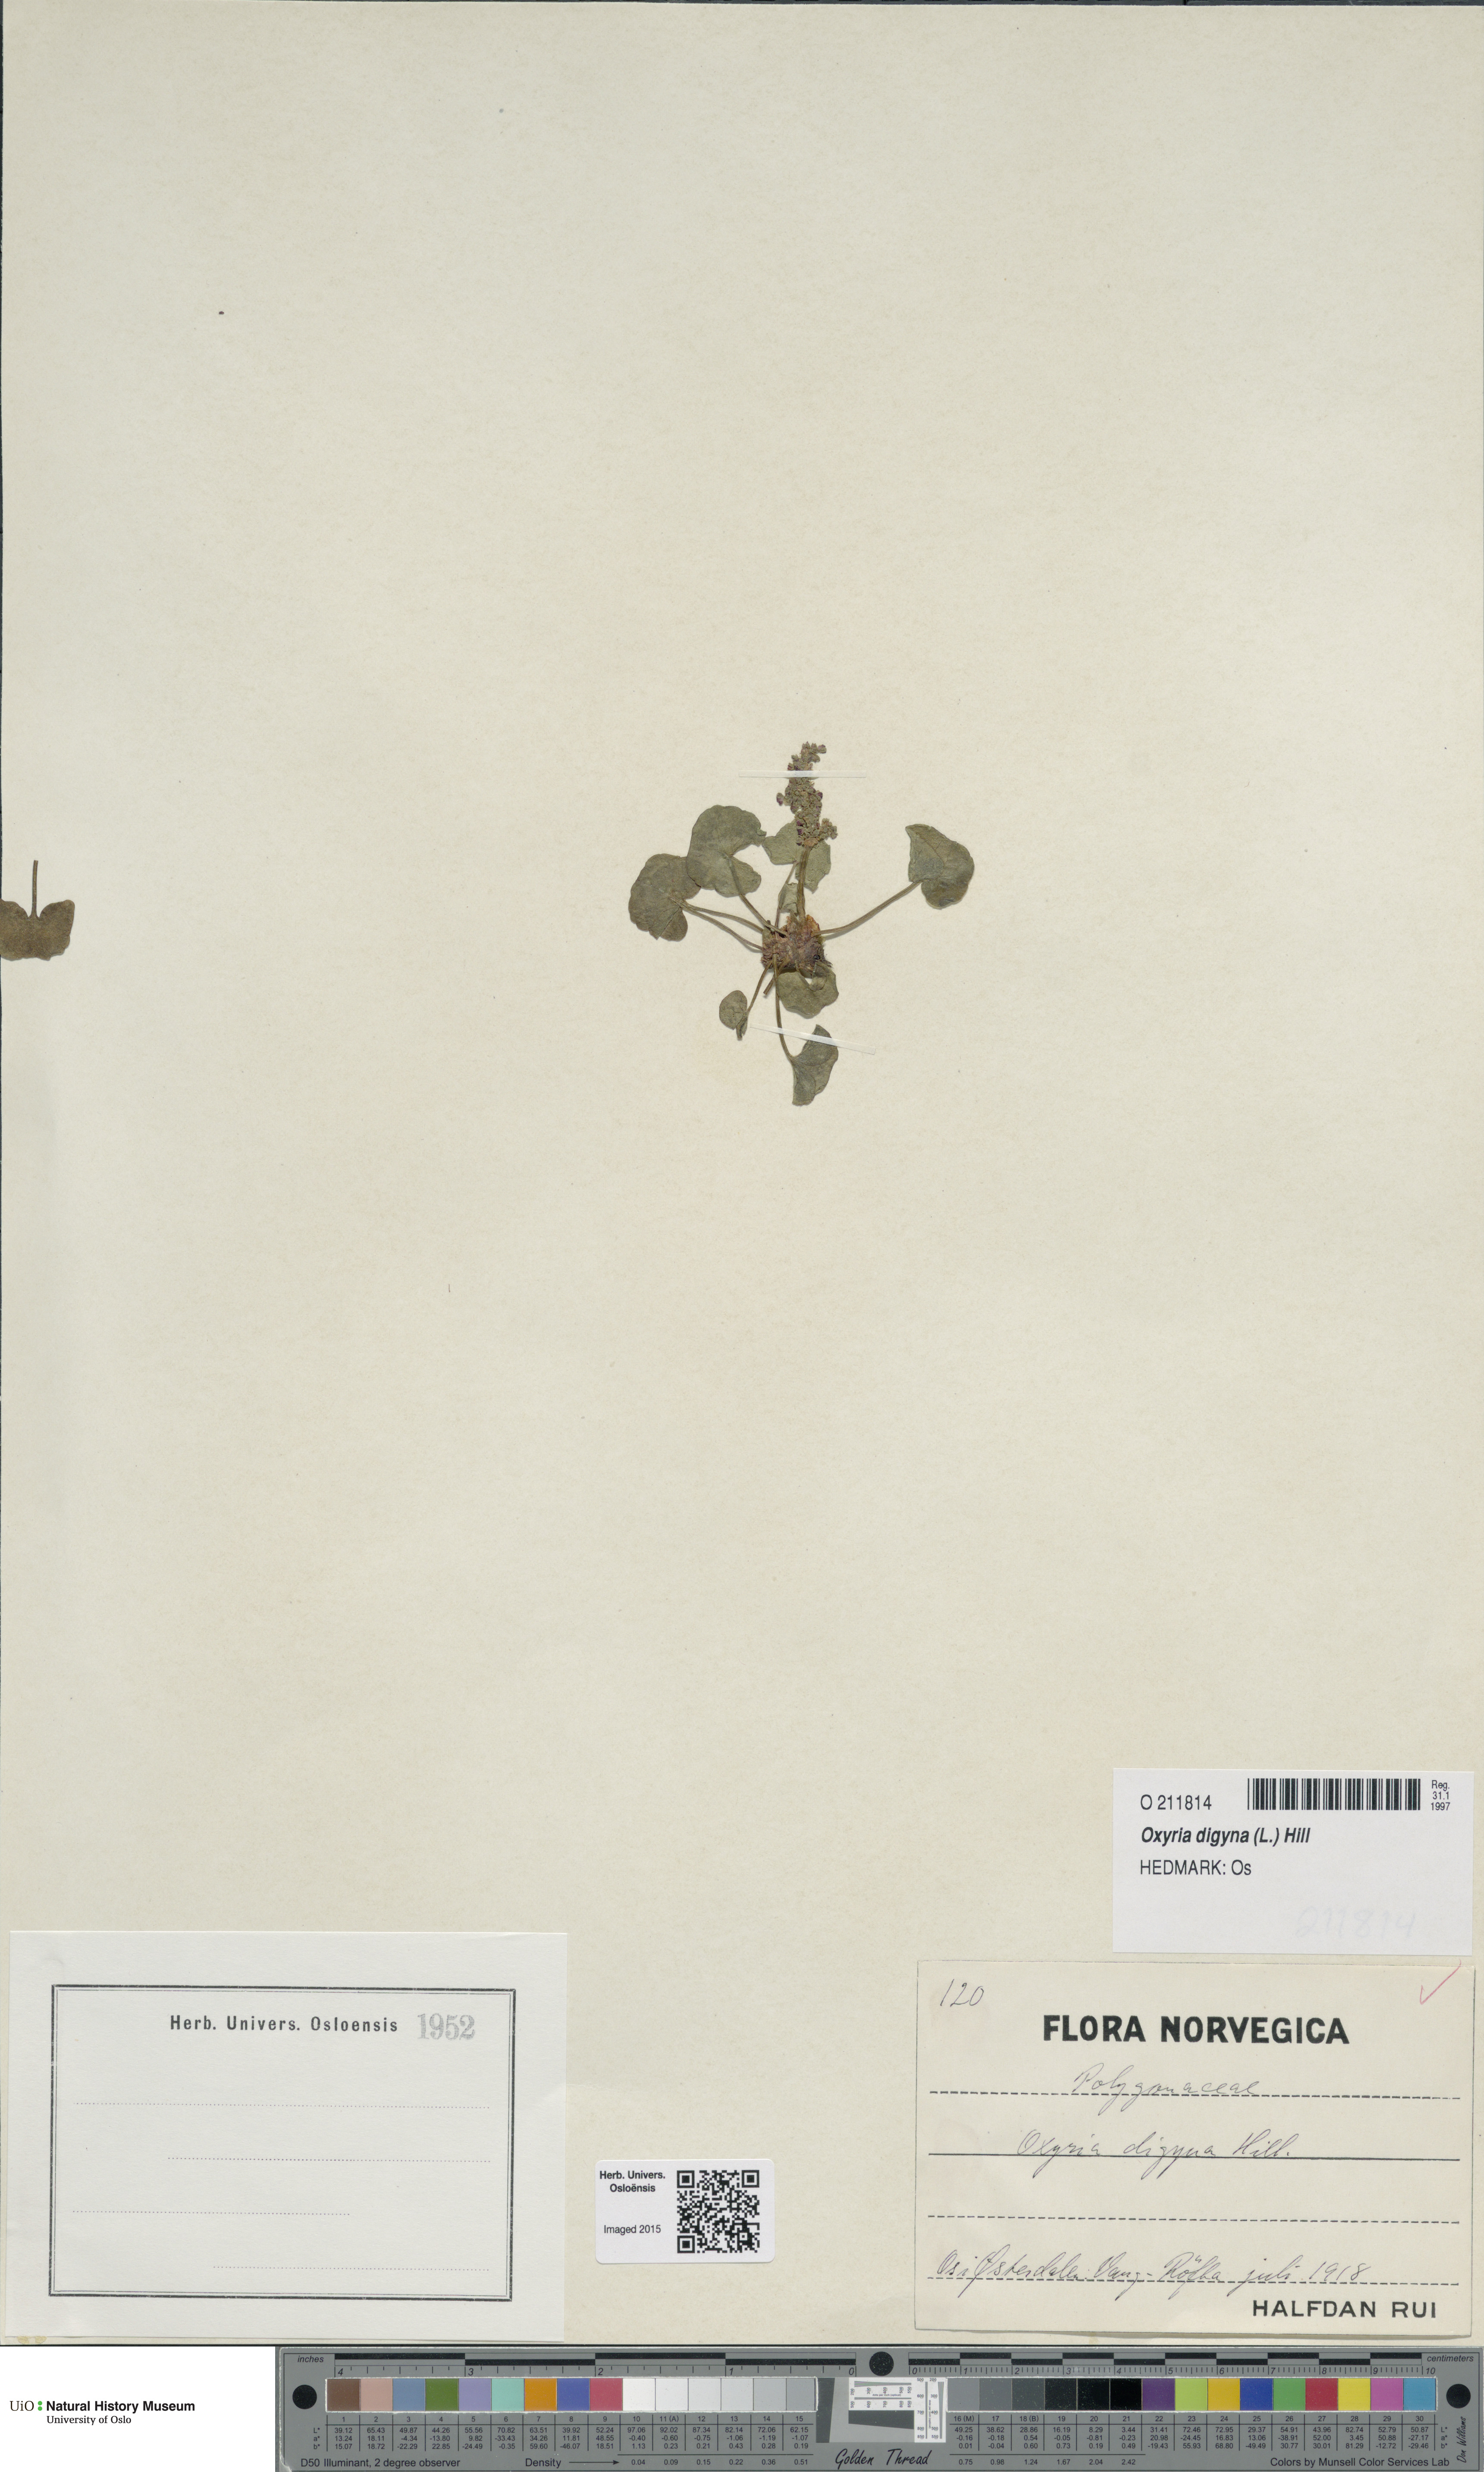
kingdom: Plantae
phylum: Tracheophyta
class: Magnoliopsida
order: Caryophyllales
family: Polygonaceae
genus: Oxyria
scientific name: Oxyria digyna
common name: Alpine mountain-sorrel
